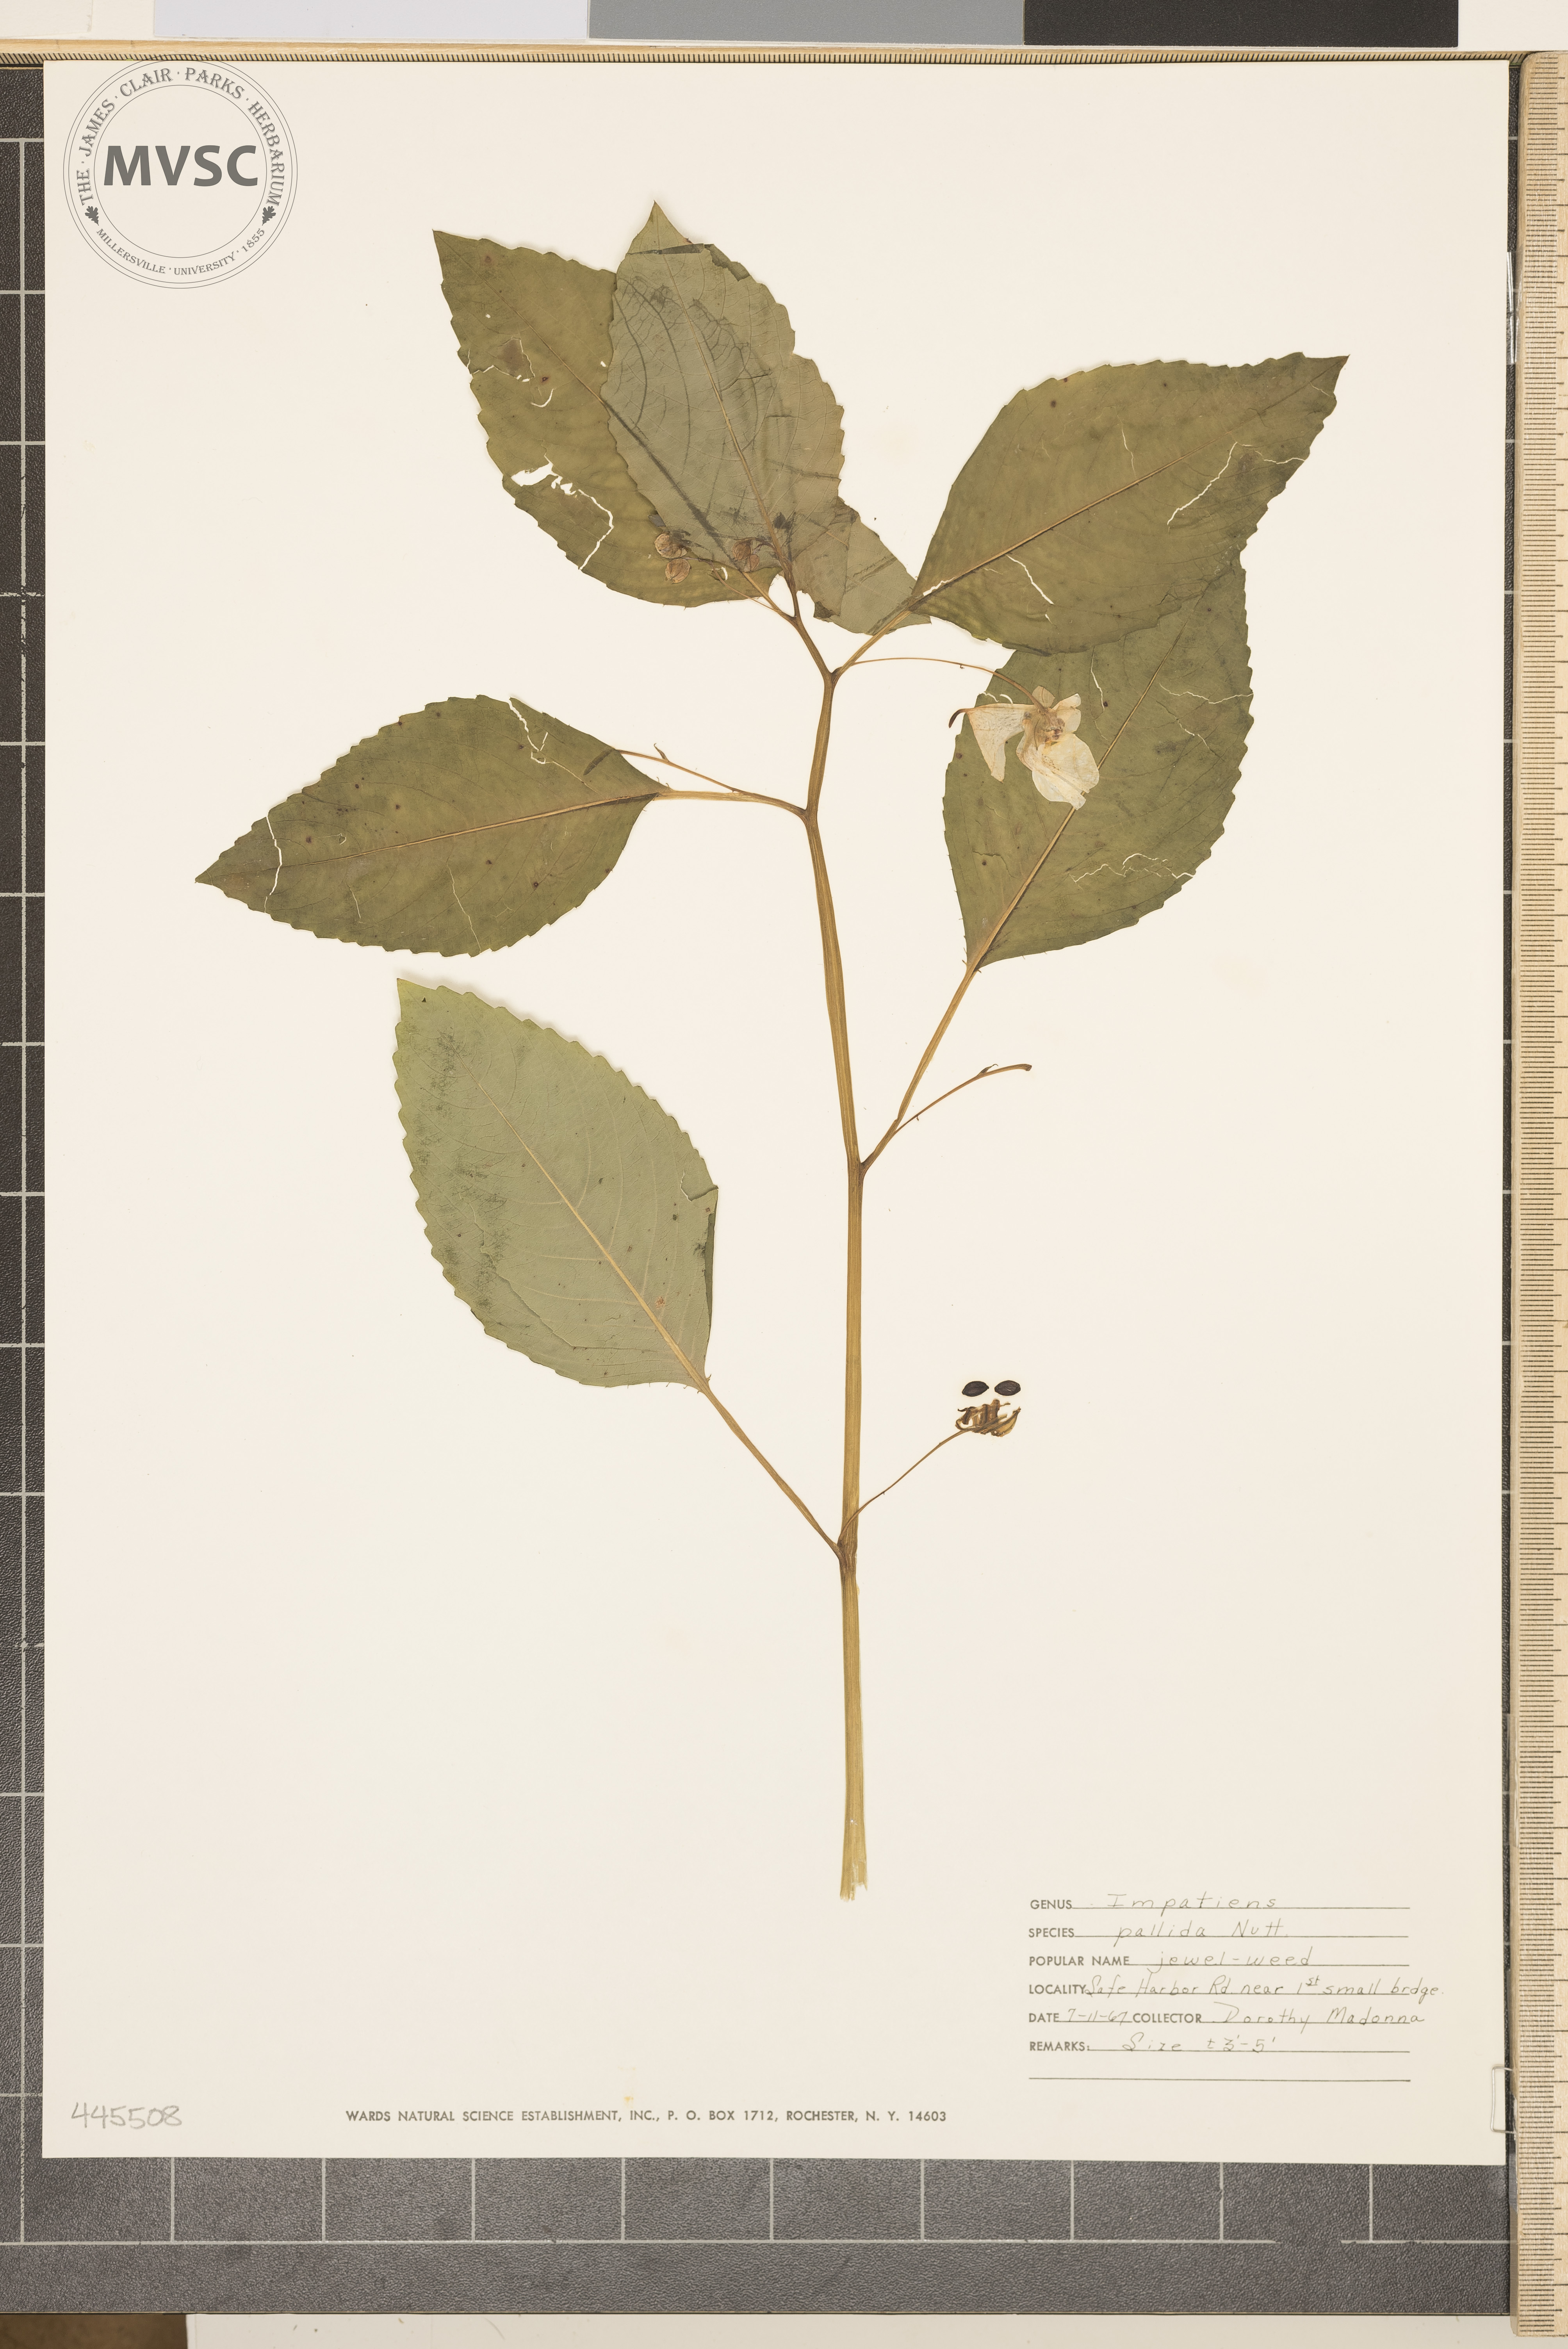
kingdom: Plantae
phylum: Tracheophyta
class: Magnoliopsida
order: Ericales
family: Balsaminaceae
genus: Impatiens
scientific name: Impatiens pallida
